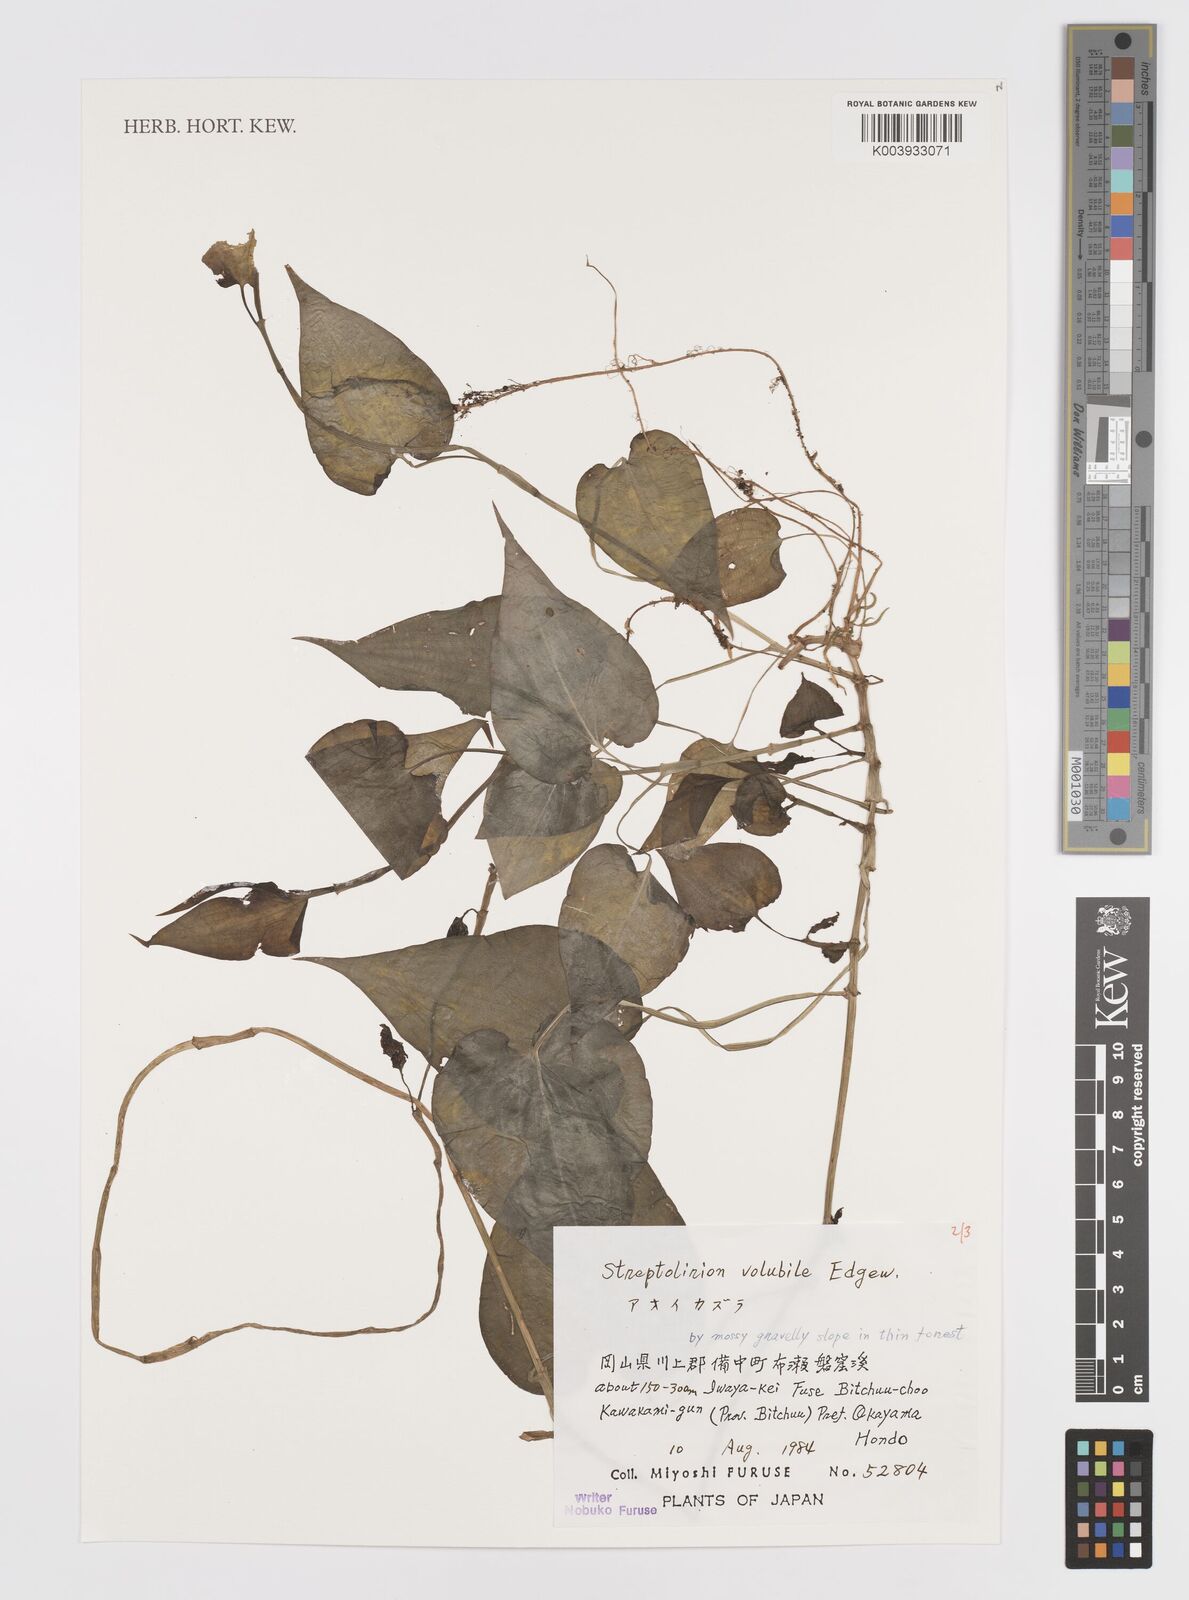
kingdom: Plantae
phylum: Tracheophyta
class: Liliopsida
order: Commelinales
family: Commelinaceae
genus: Streptolirion
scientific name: Streptolirion volubile
